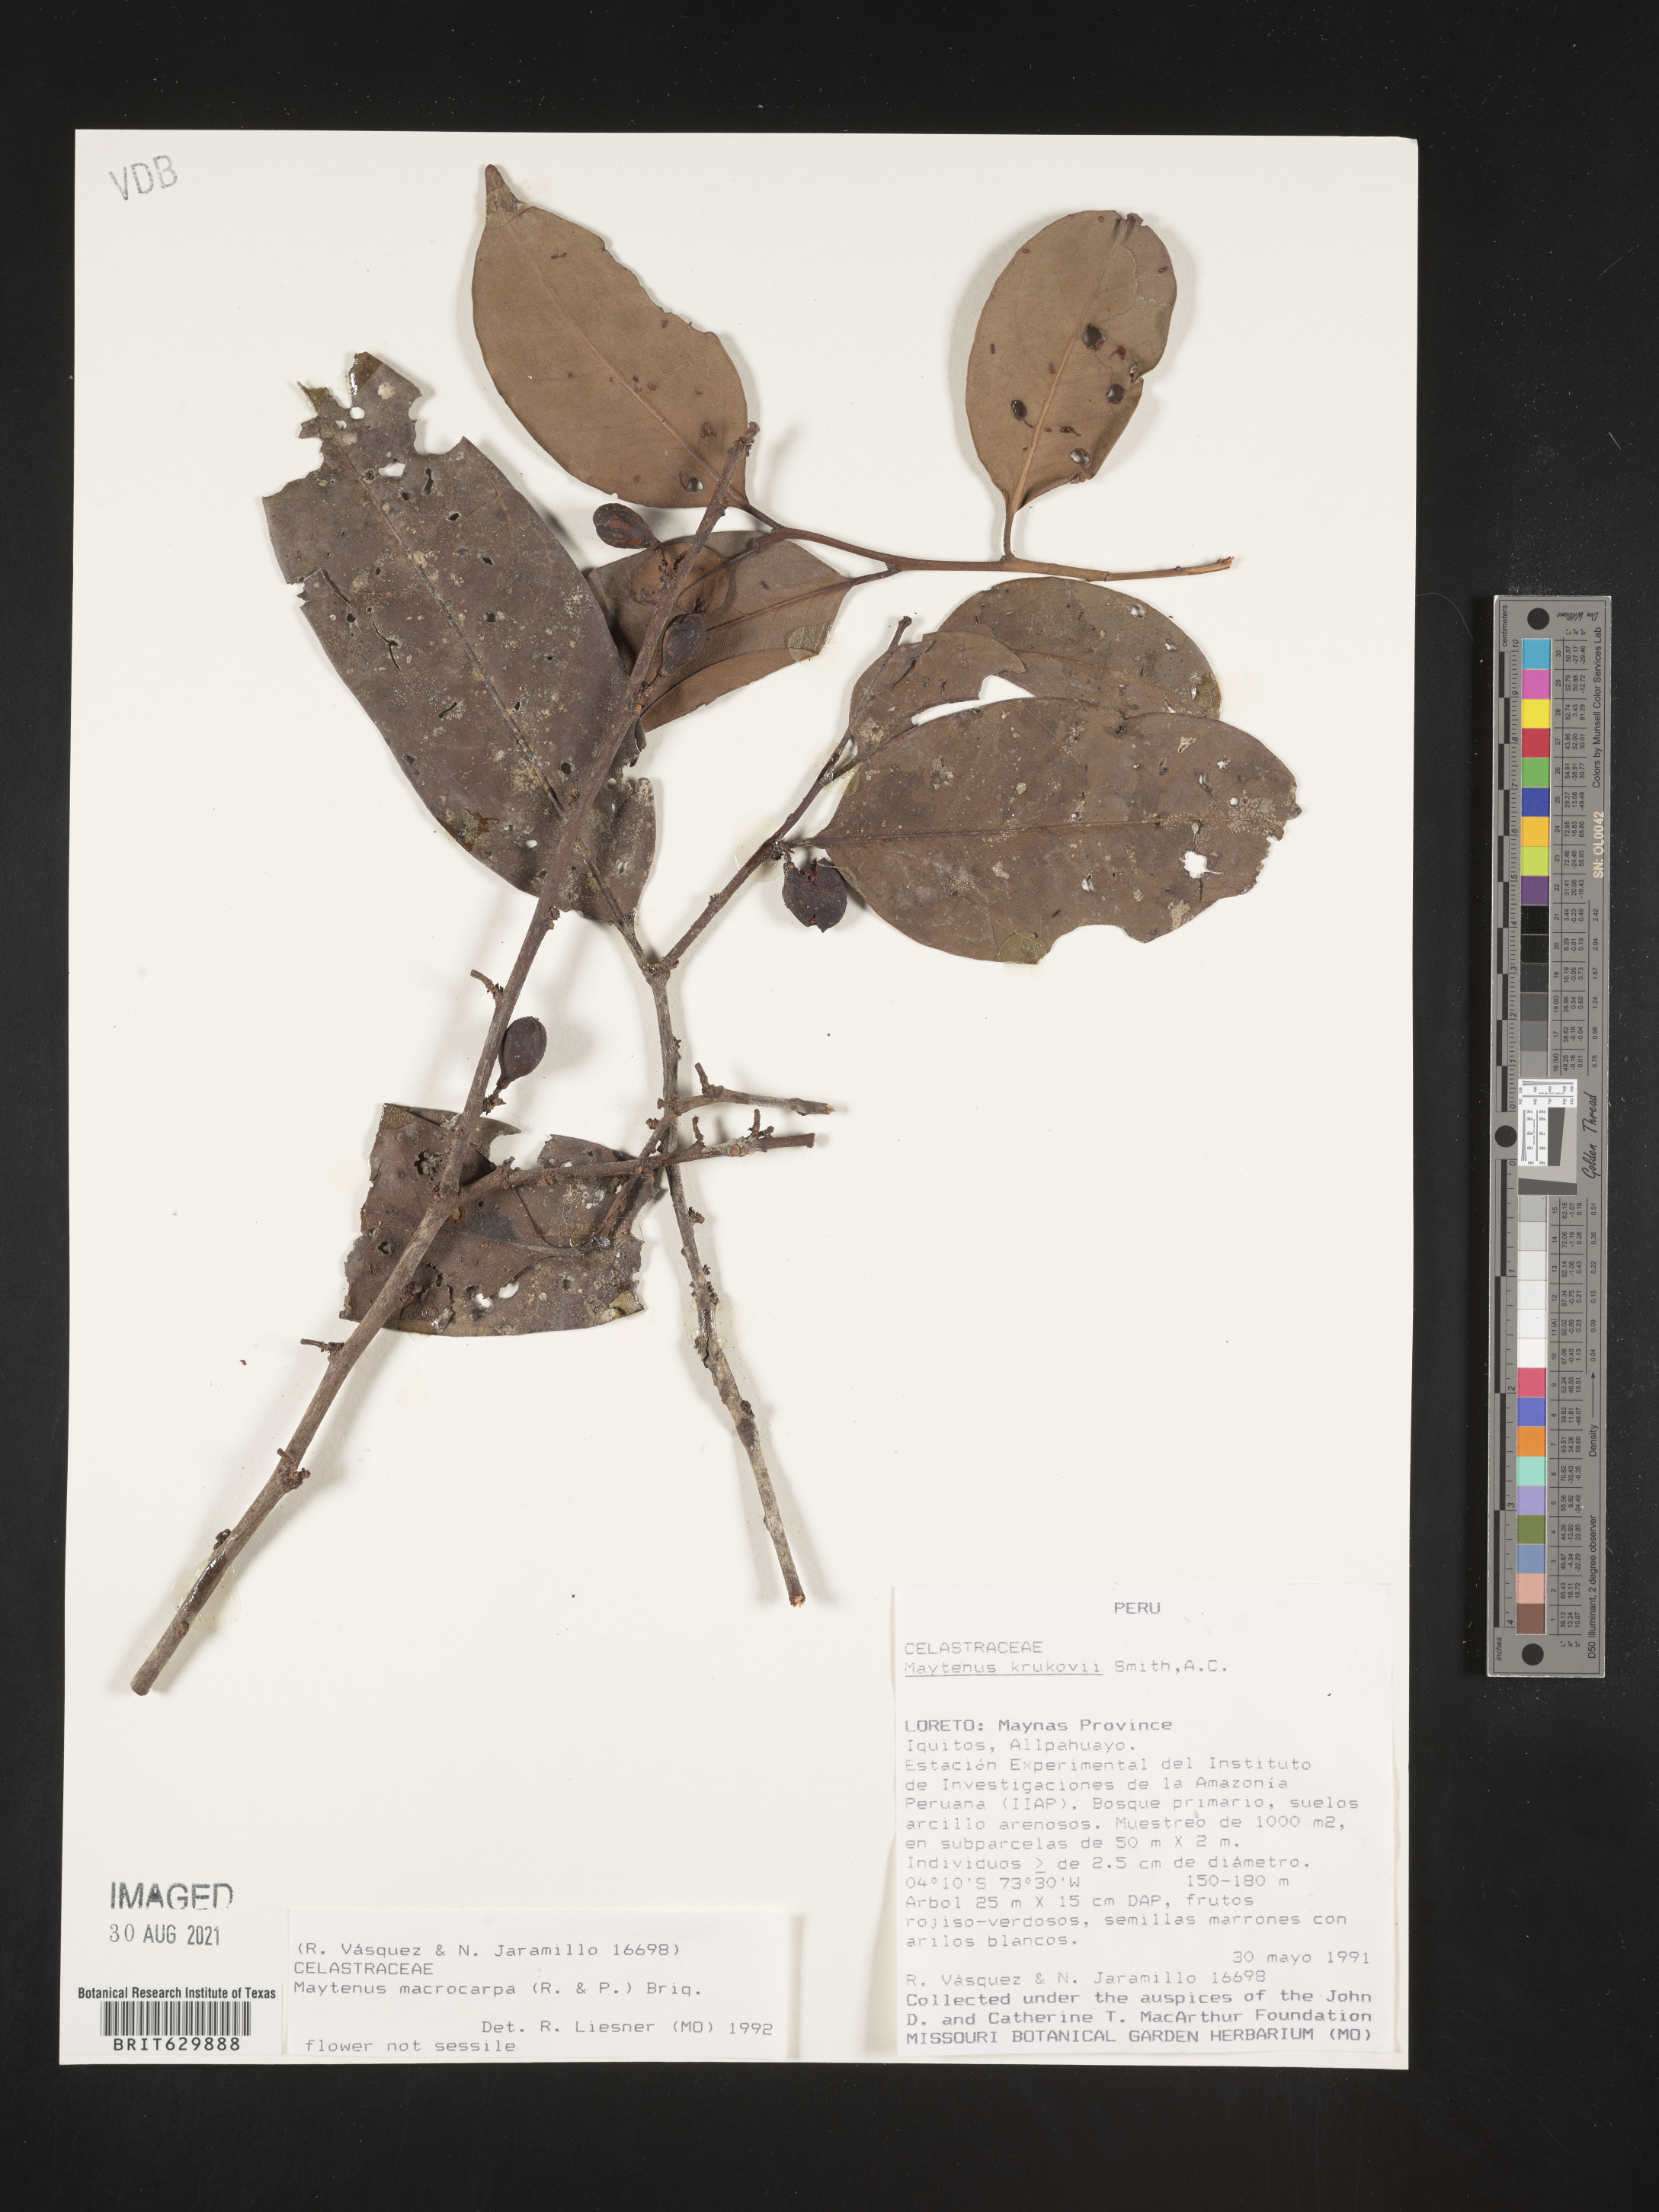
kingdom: Plantae
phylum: Tracheophyta
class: Magnoliopsida
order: Celastrales
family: Celastraceae
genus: Monteverdia
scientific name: Monteverdia macrocarpa
